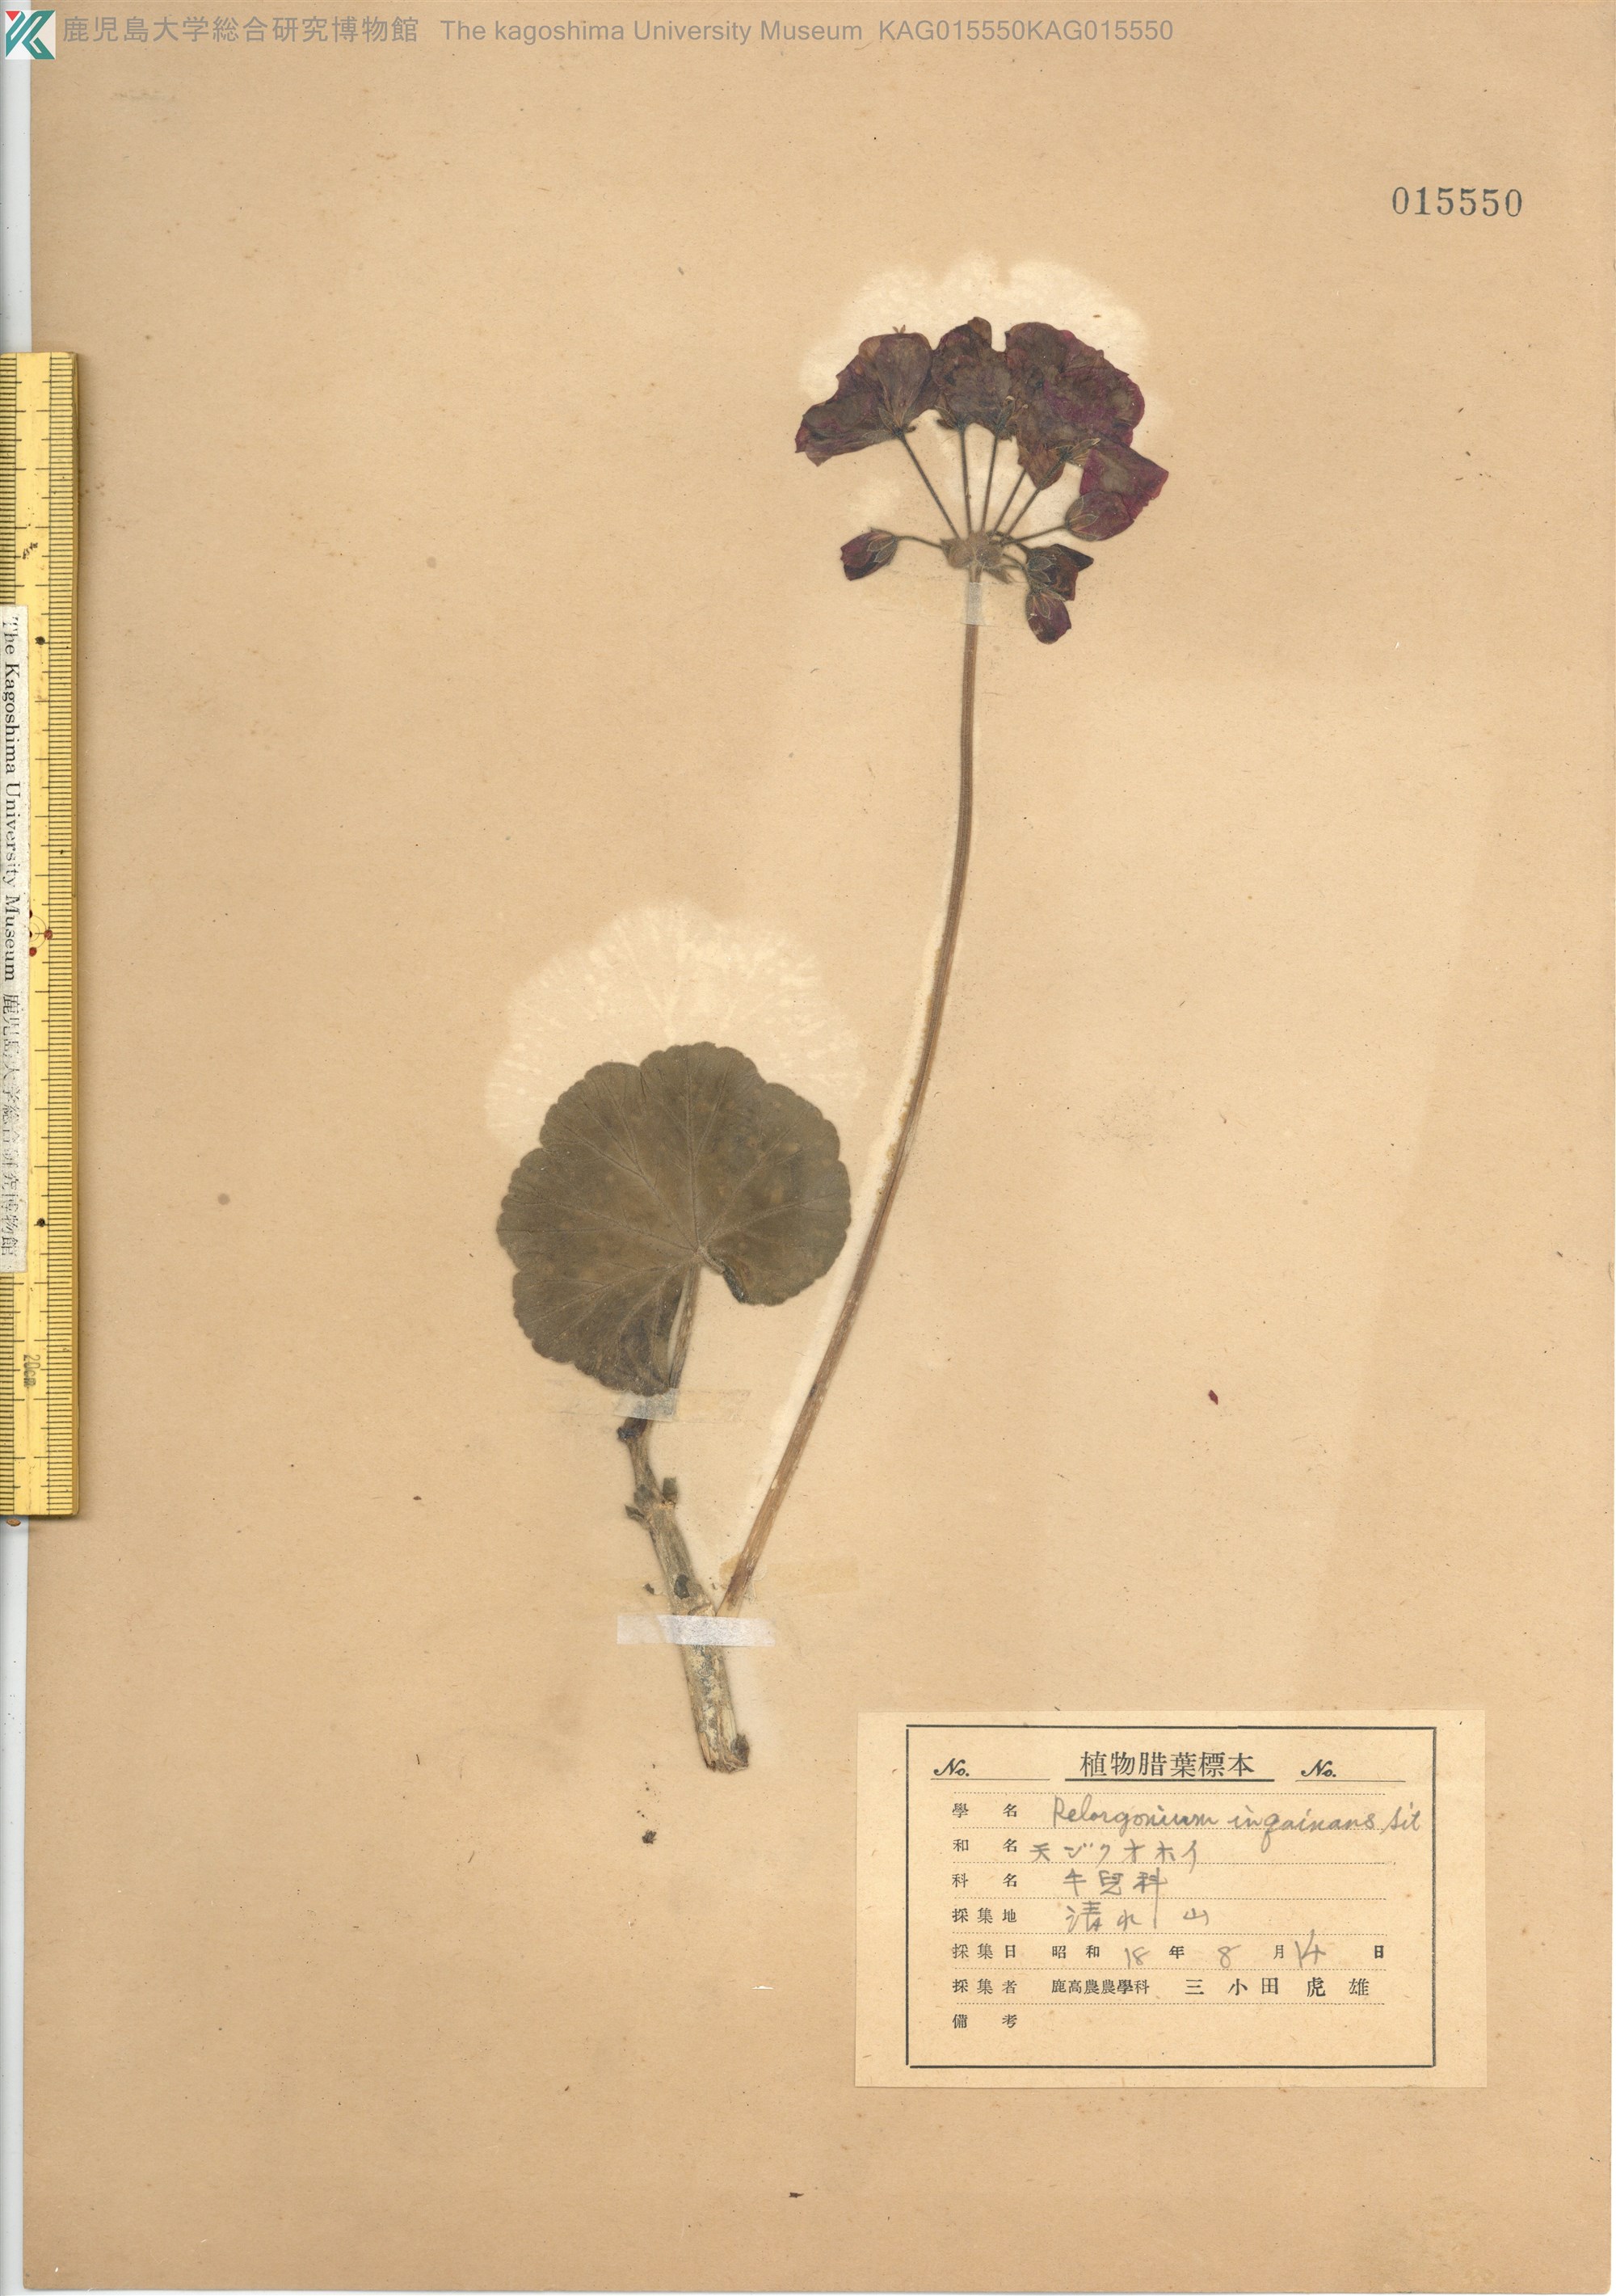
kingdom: Plantae
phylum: Tracheophyta
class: Magnoliopsida
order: Geraniales
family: Geraniaceae
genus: Pelargonium
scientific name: Pelargonium inquinans
